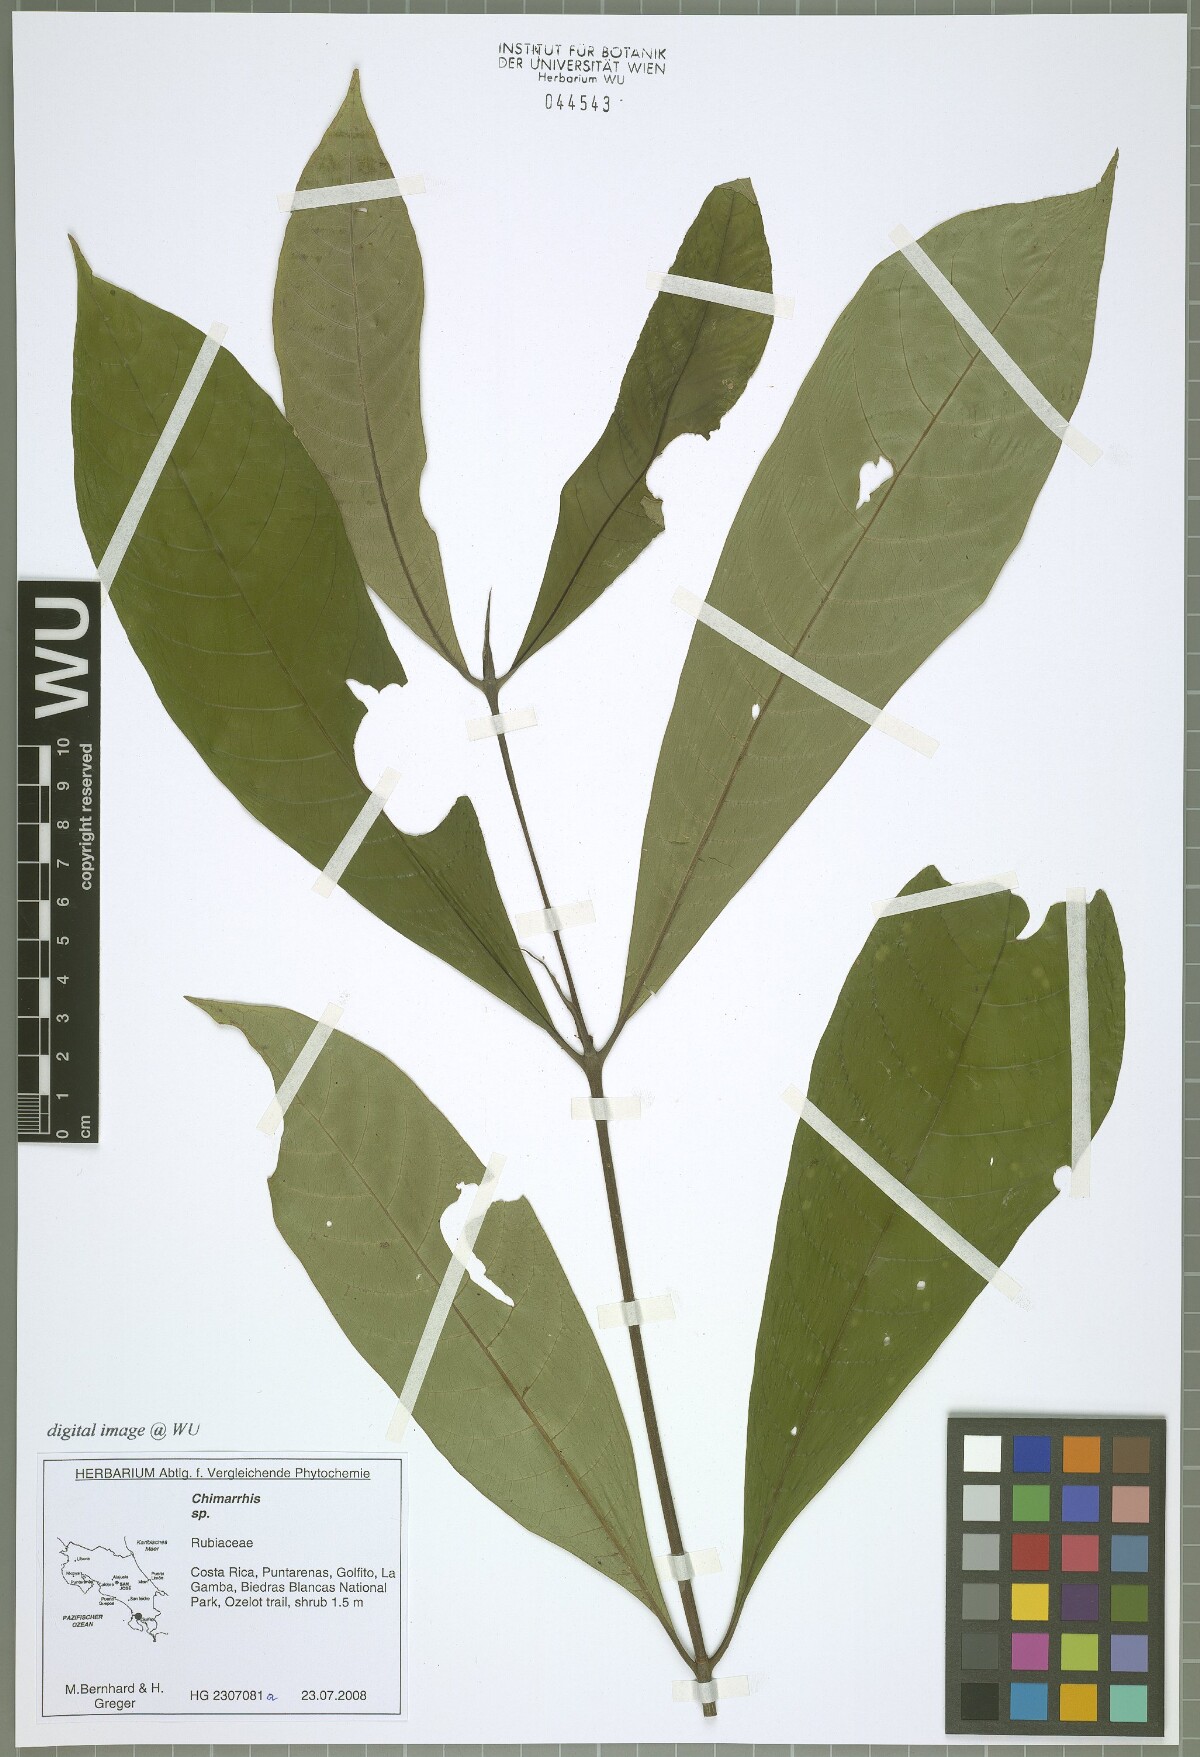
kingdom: Plantae
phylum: Tracheophyta
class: Magnoliopsida
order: Gentianales
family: Rubiaceae
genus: Chimarrhis
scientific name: Chimarrhis
